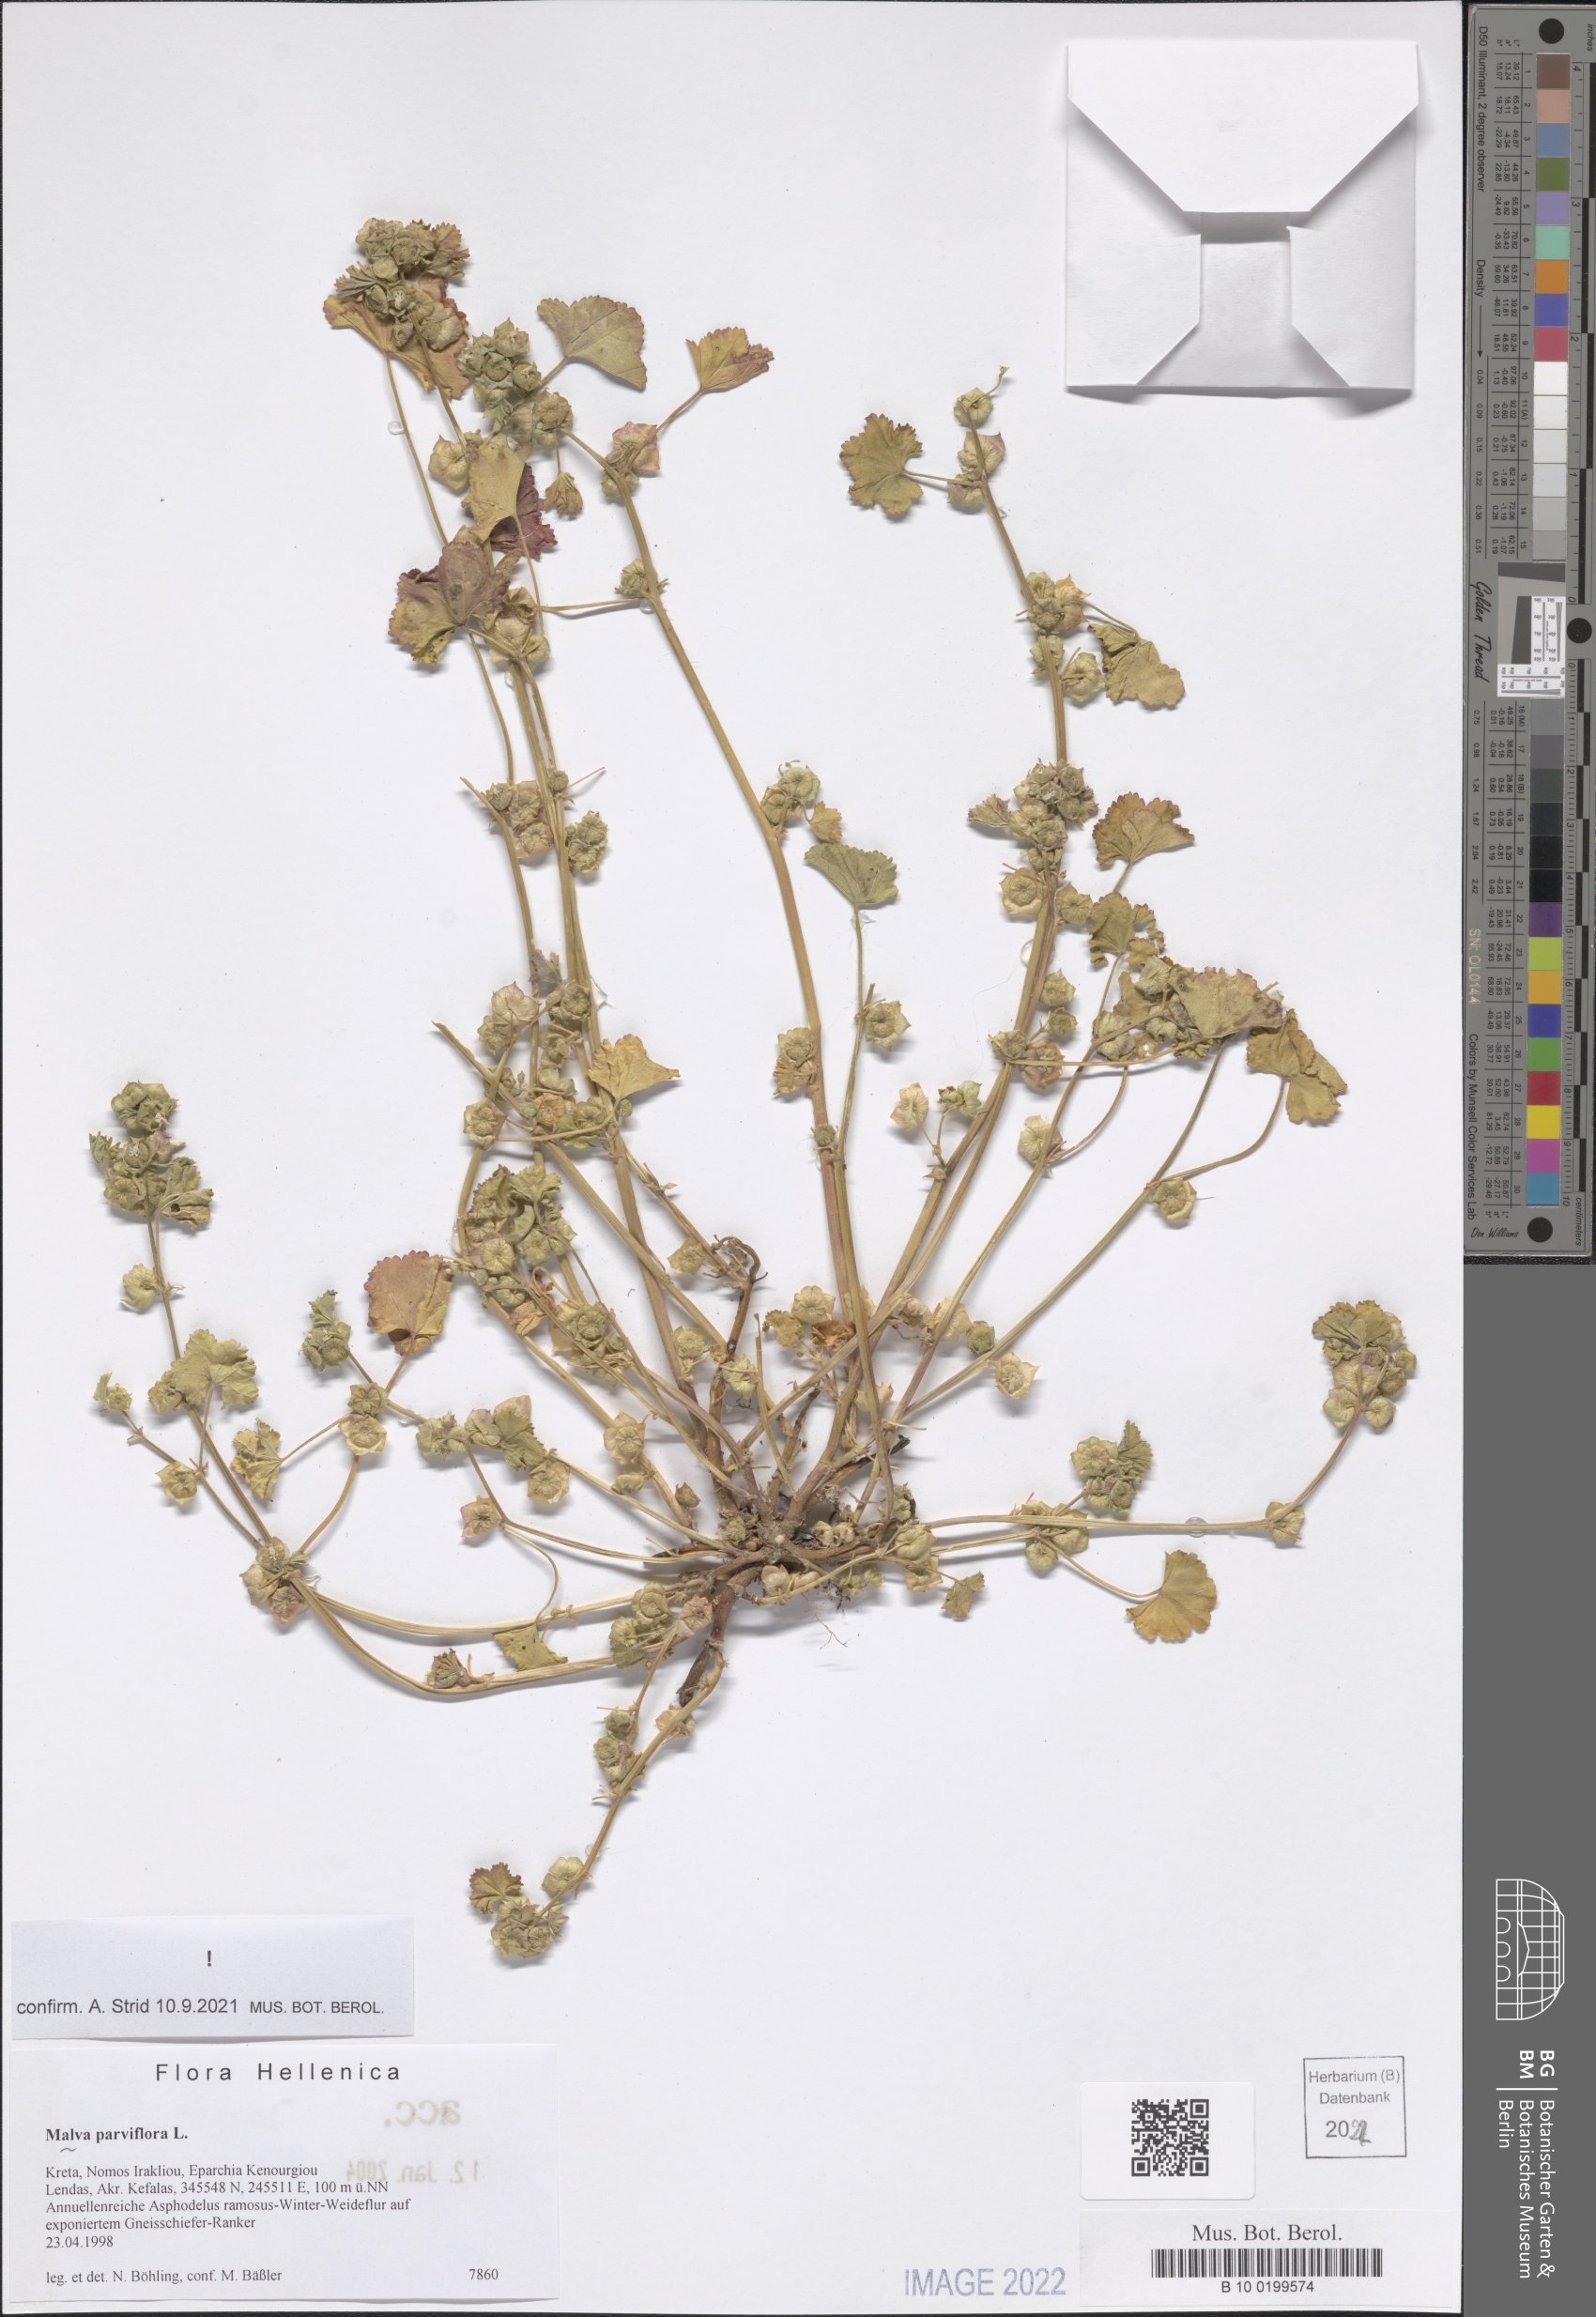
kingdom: Plantae
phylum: Tracheophyta
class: Magnoliopsida
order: Malvales
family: Malvaceae
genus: Malva
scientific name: Malva parviflora
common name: Least mallow
